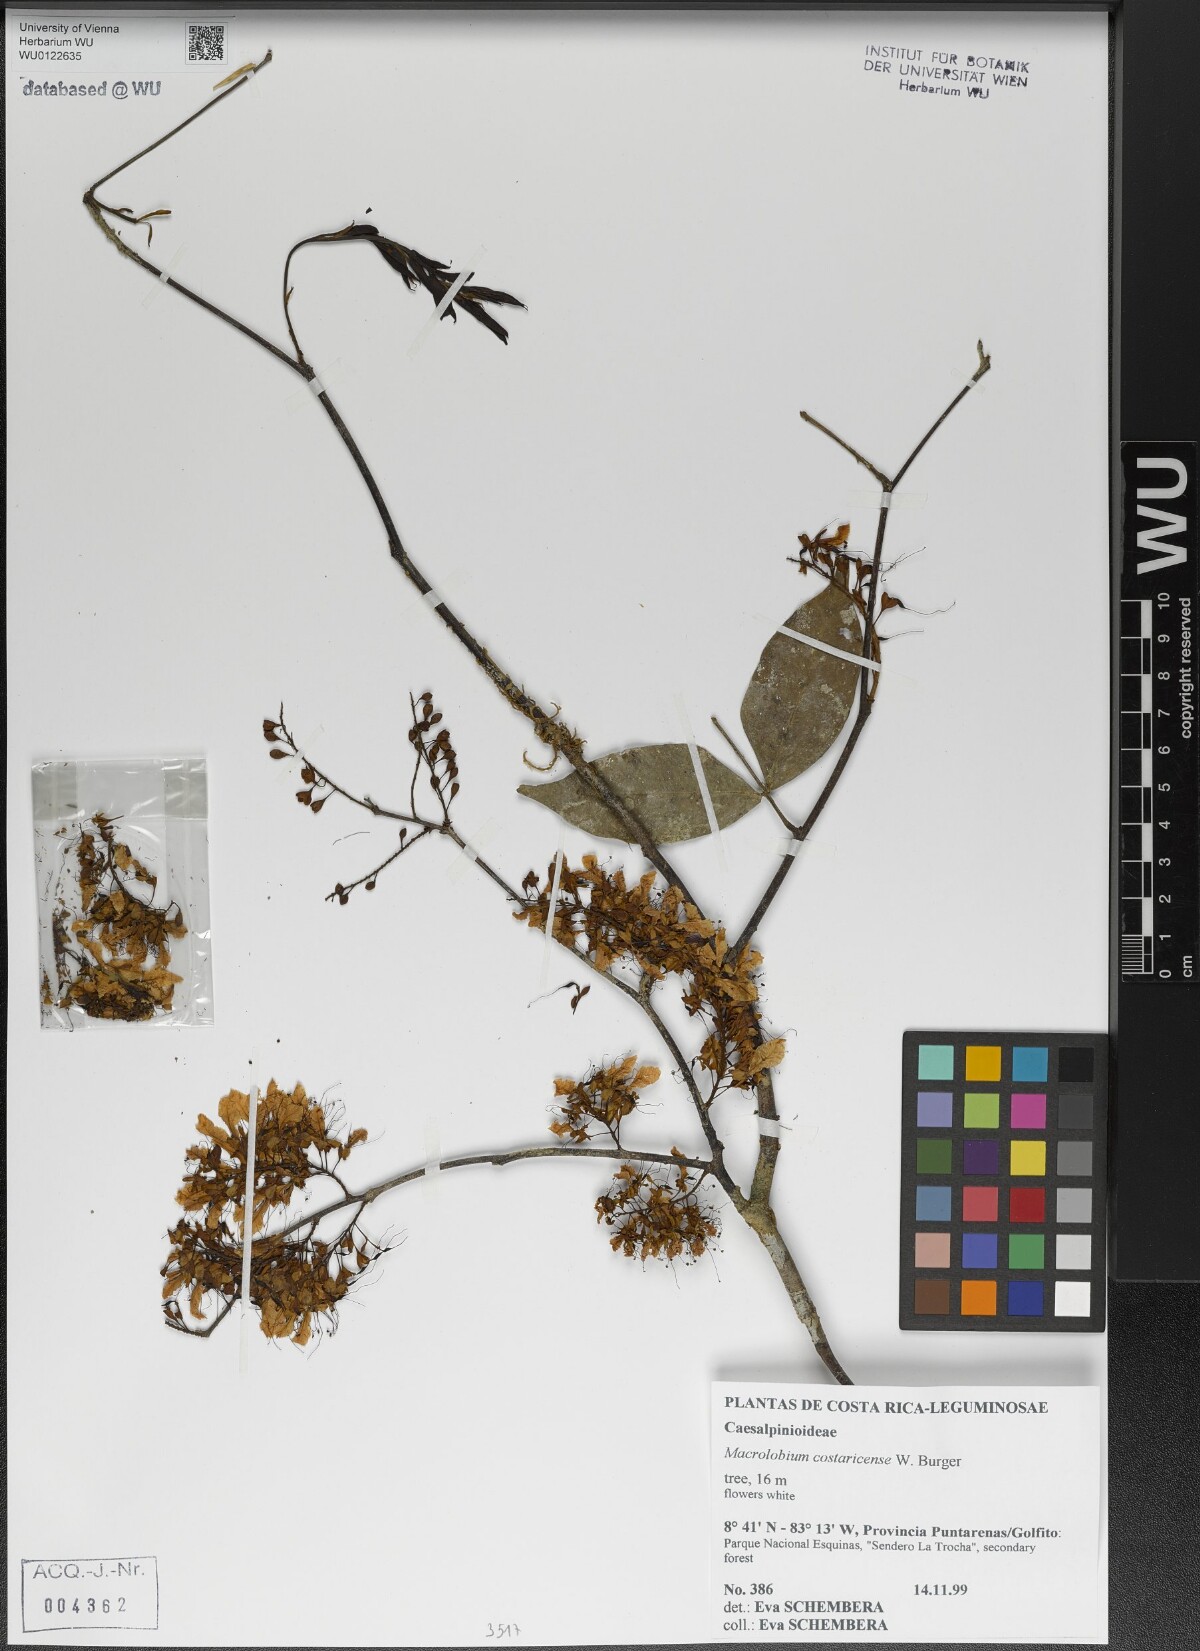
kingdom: Plantae
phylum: Tracheophyta
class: Magnoliopsida
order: Fabales
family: Fabaceae
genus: Macrolobium
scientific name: Macrolobium costaricense
